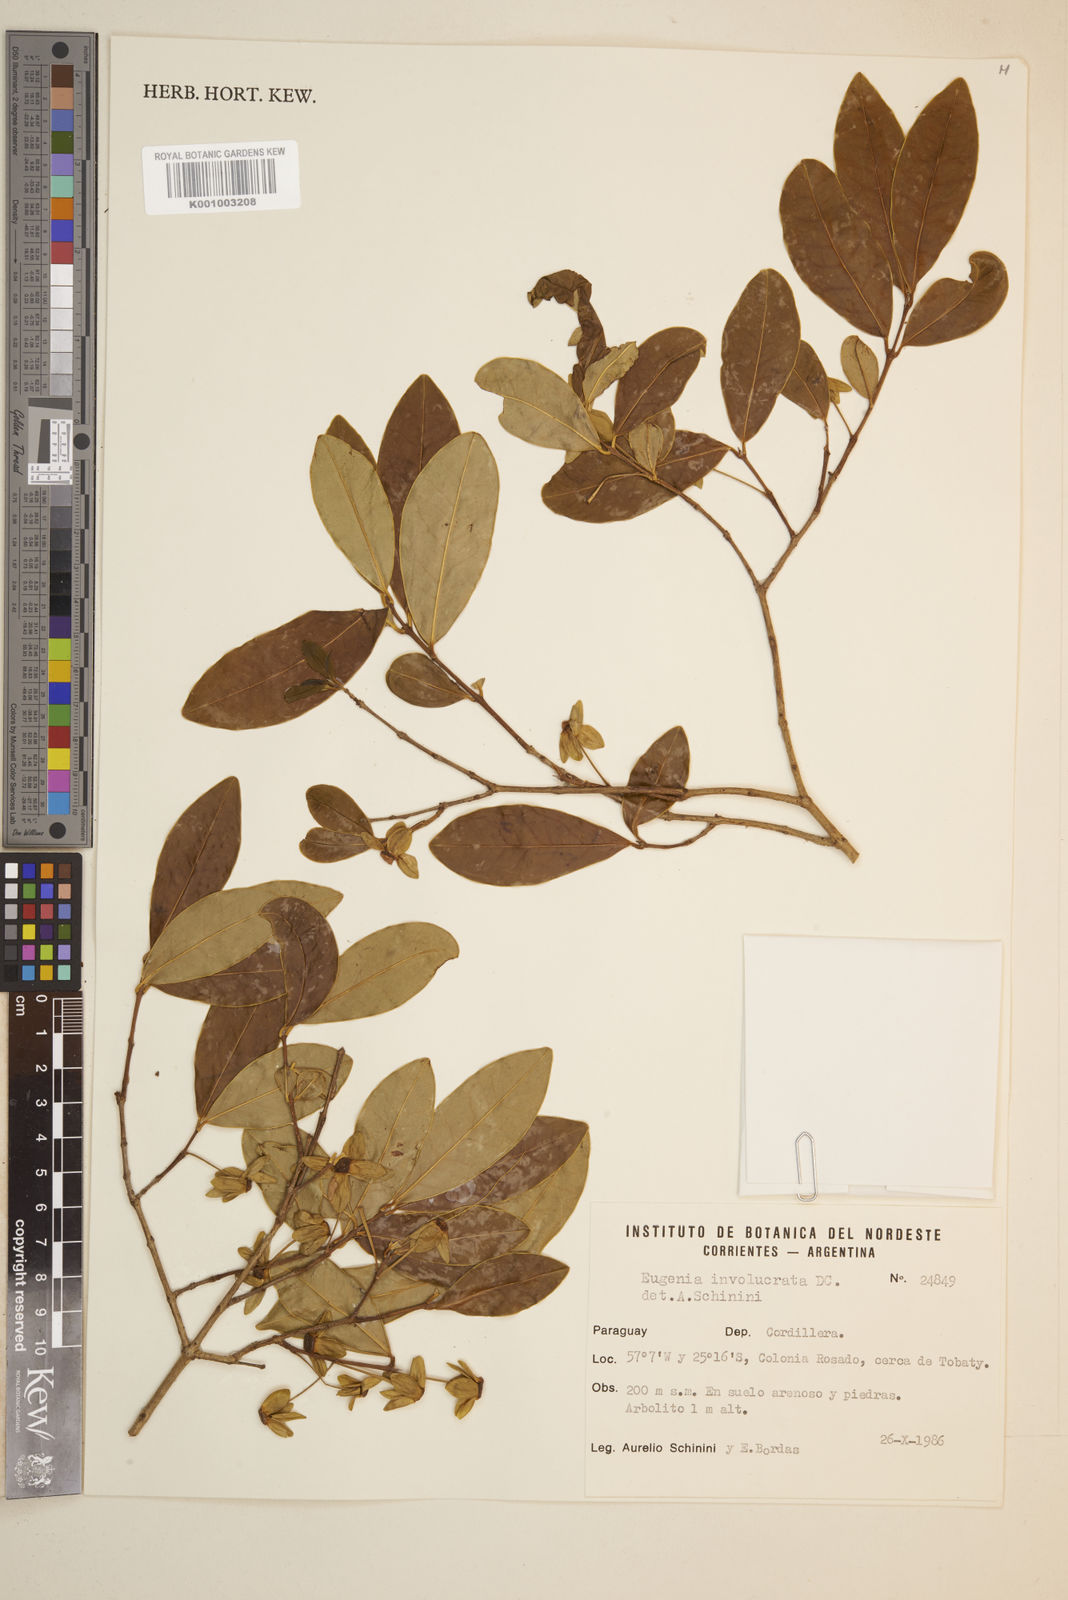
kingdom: Plantae
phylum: Tracheophyta
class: Magnoliopsida
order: Myrtales
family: Myrtaceae
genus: Eugenia
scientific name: Eugenia involucrata
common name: Cherry-of-the-rio grande
